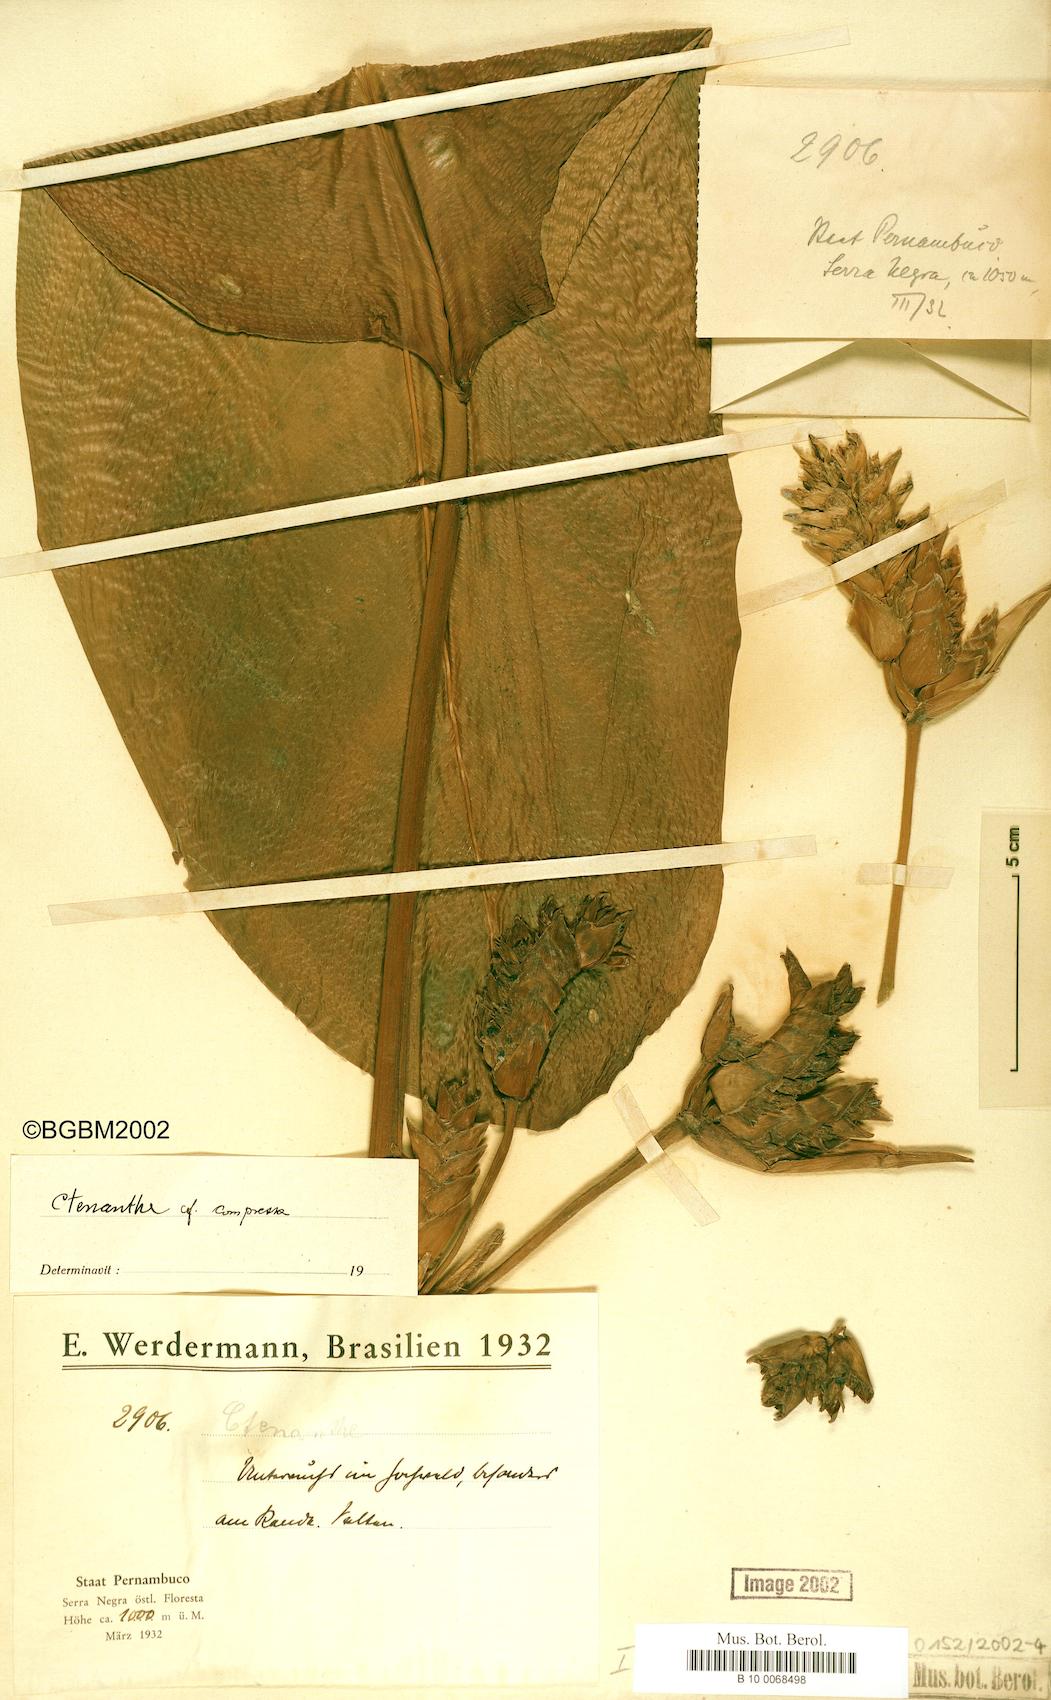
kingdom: Plantae
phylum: Tracheophyta
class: Liliopsida
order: Zingiberales
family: Marantaceae
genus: Ctenanthe
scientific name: Ctenanthe compressa
